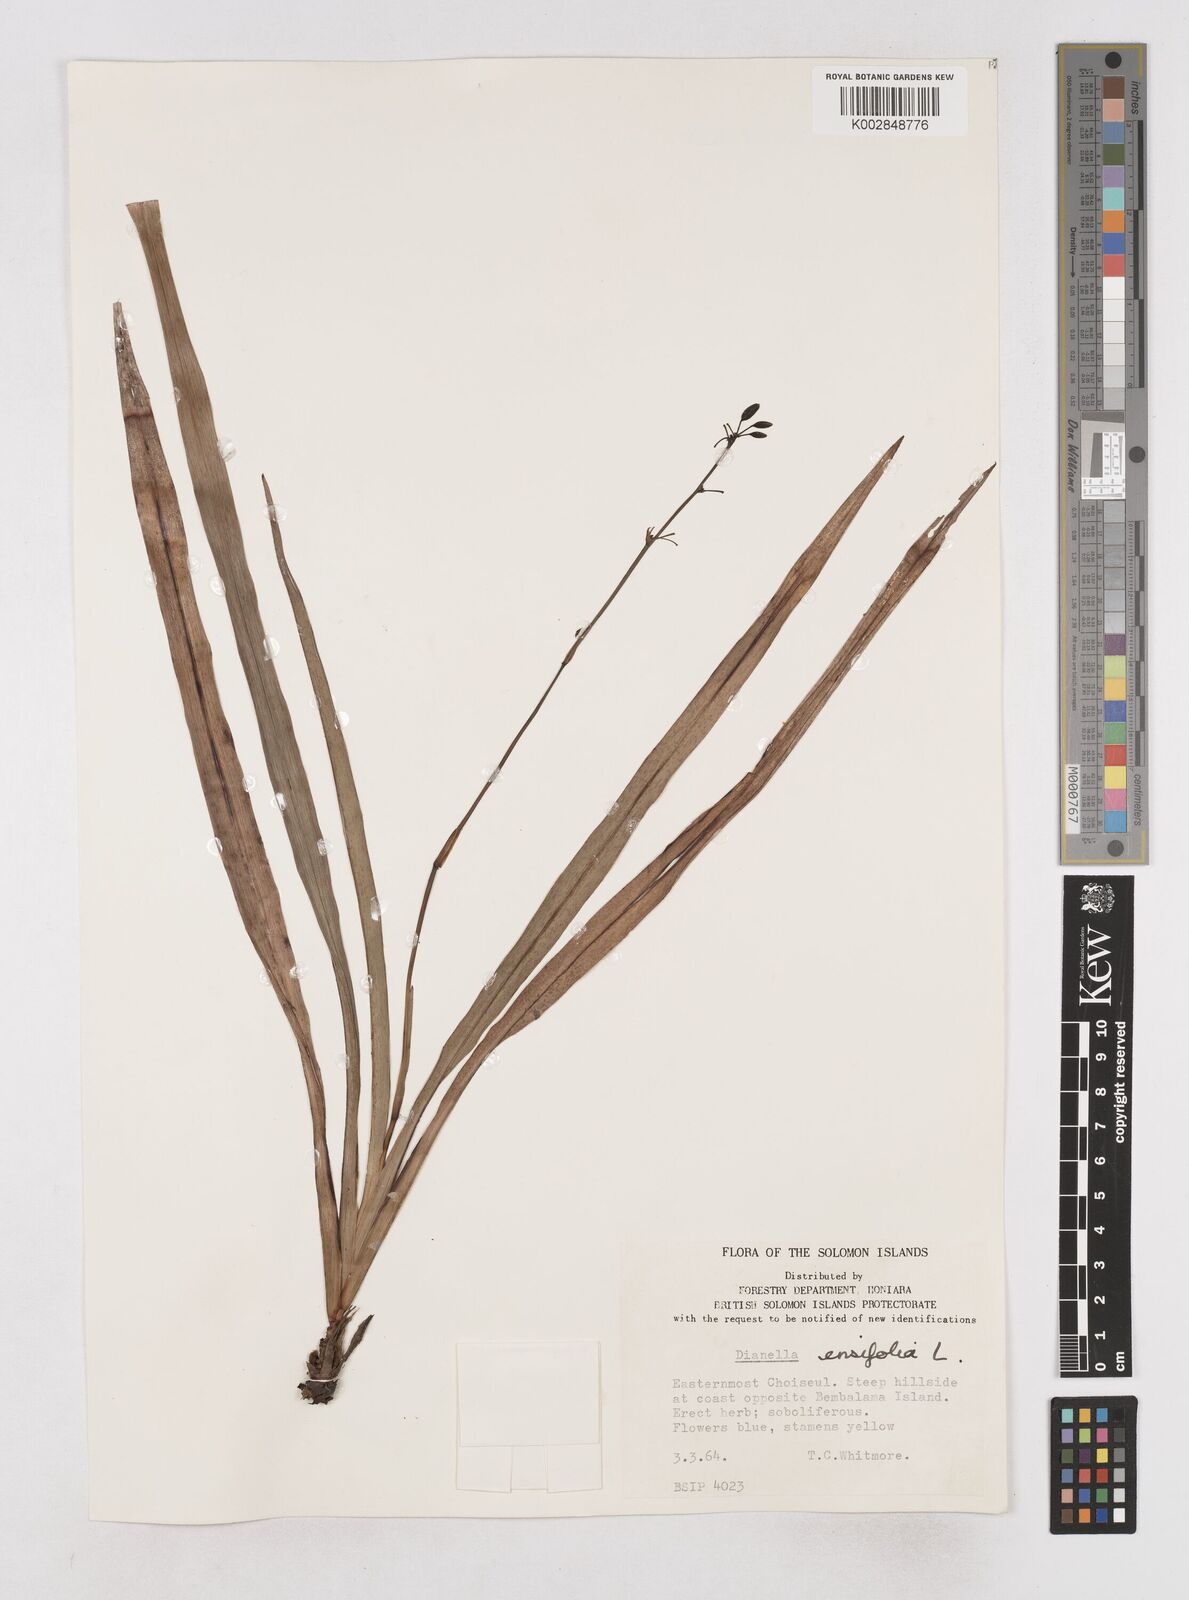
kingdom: Plantae
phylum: Tracheophyta
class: Liliopsida
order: Asparagales
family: Asphodelaceae
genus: Dianella
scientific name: Dianella ensifolia
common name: New zealand lilyplant
